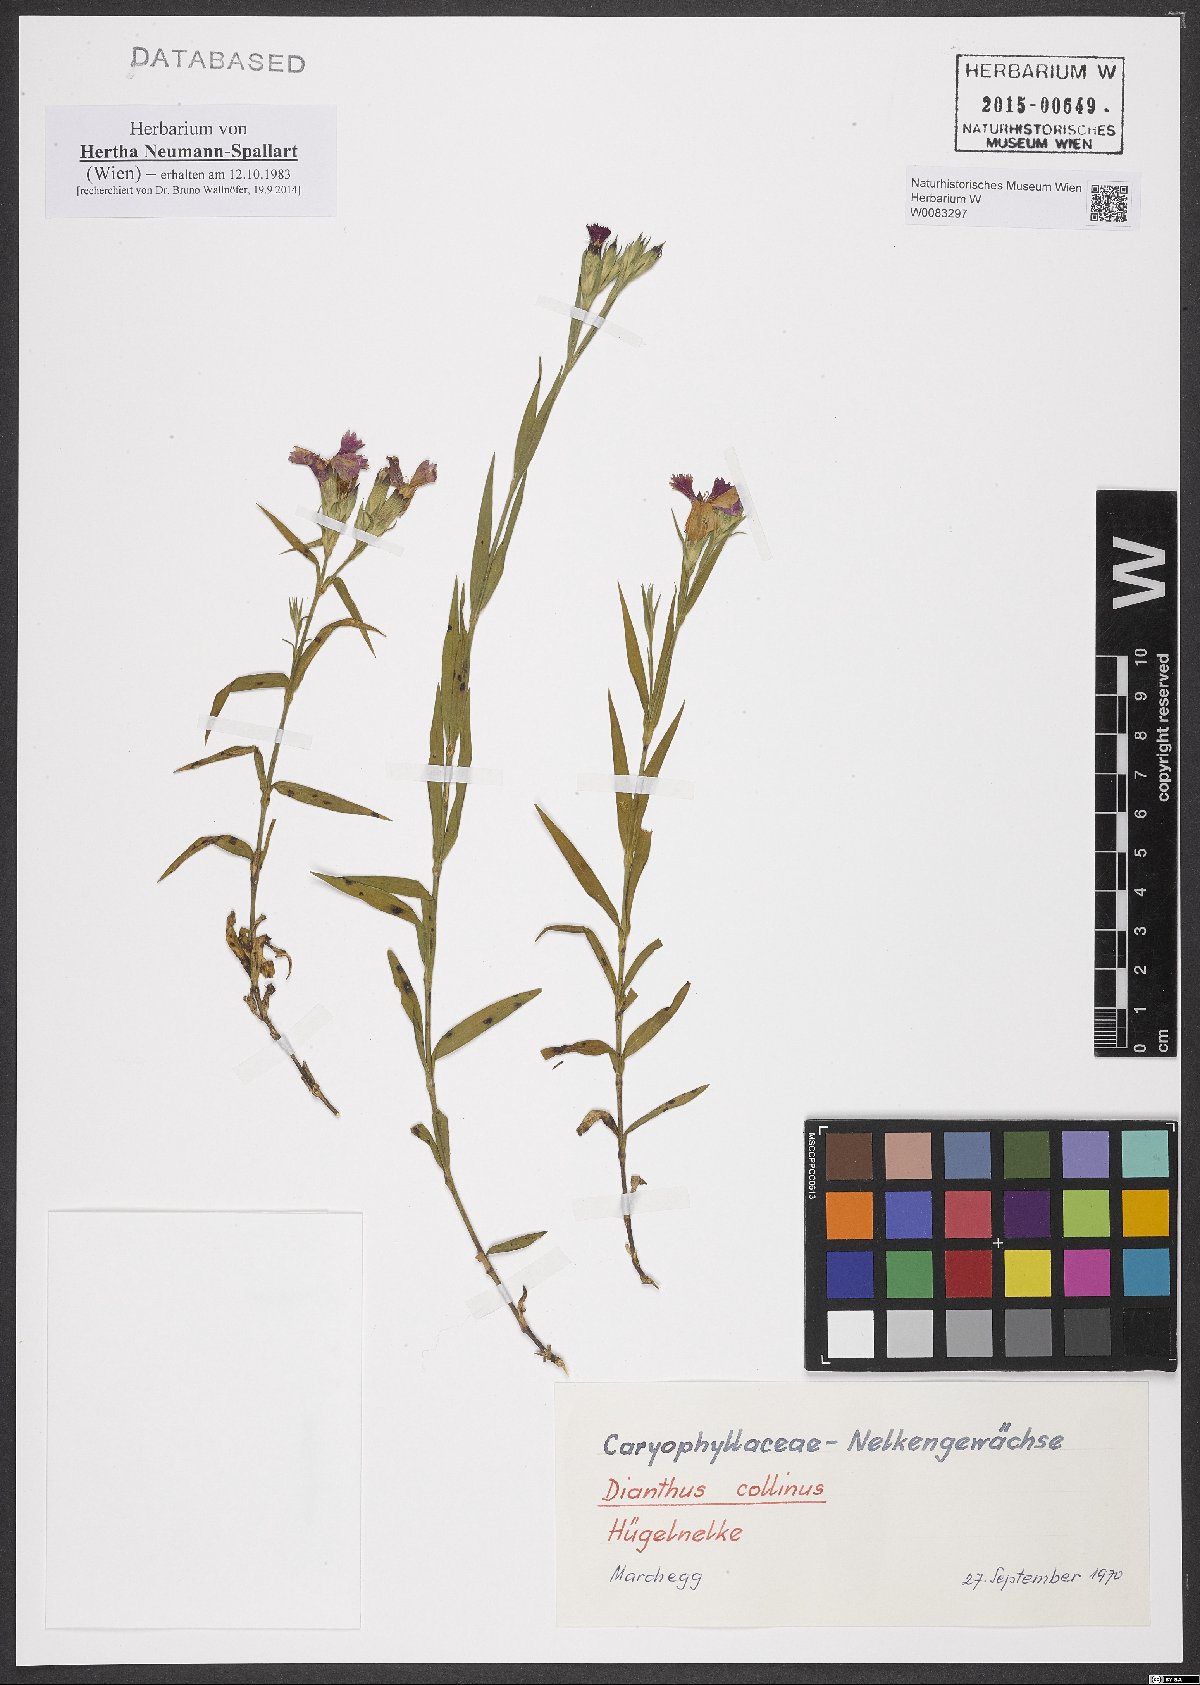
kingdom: Plantae
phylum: Tracheophyta
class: Magnoliopsida
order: Caryophyllales
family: Caryophyllaceae
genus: Dianthus
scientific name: Dianthus collinus
